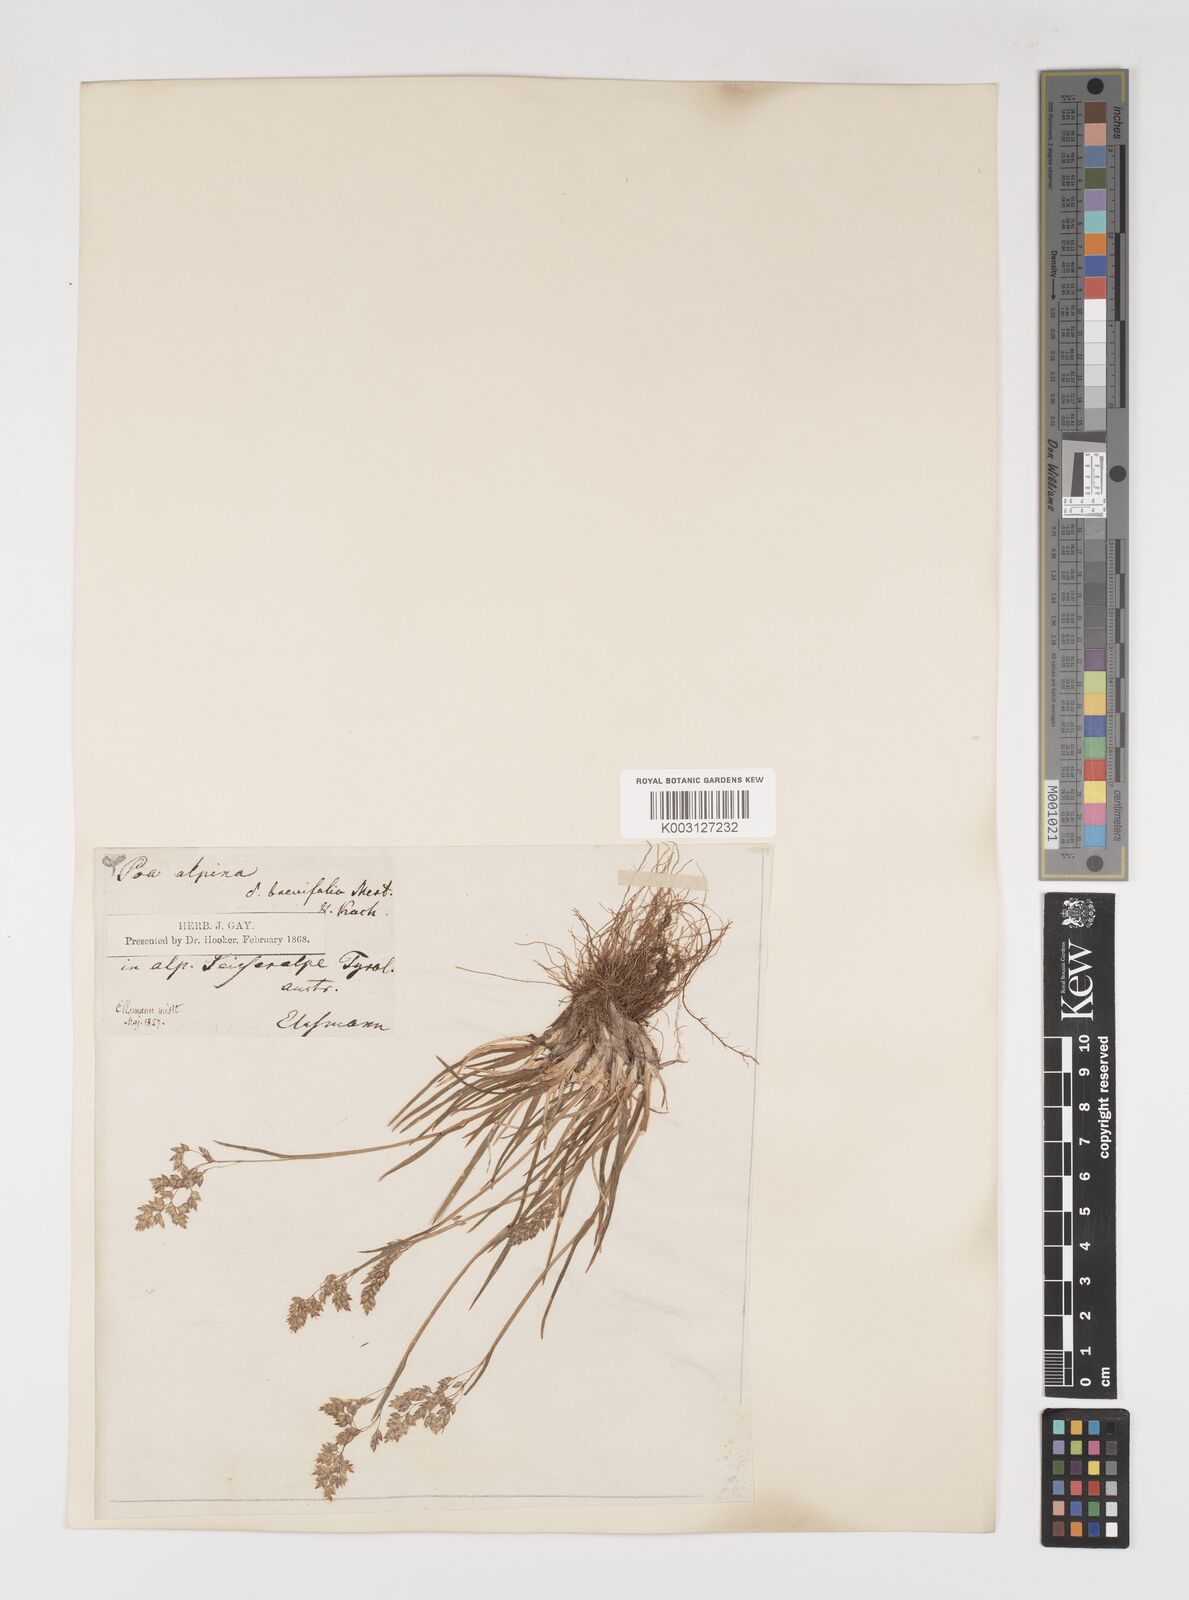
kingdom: Plantae
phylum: Tracheophyta
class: Liliopsida
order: Poales
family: Poaceae
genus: Poa
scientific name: Poa alpina
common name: Alpine bluegrass
